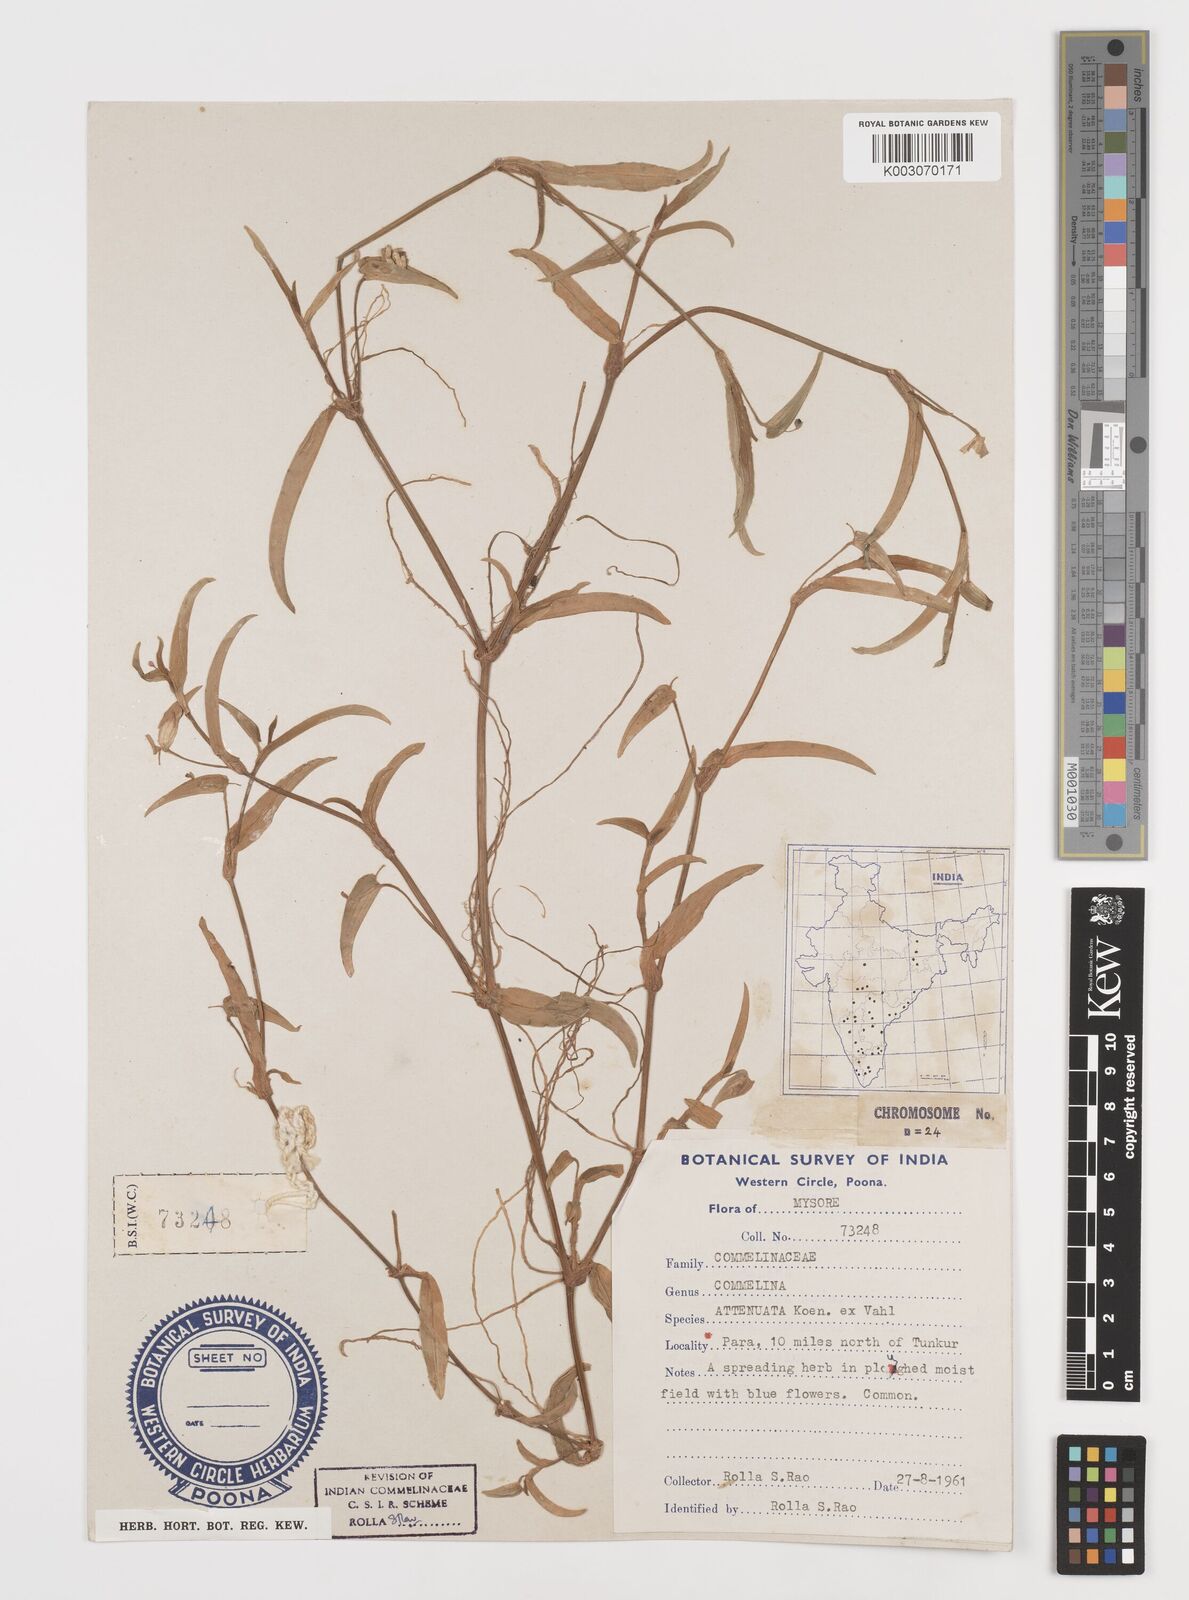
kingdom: Plantae
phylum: Tracheophyta
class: Liliopsida
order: Commelinales
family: Commelinaceae
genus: Commelina
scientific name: Commelina attenuata
